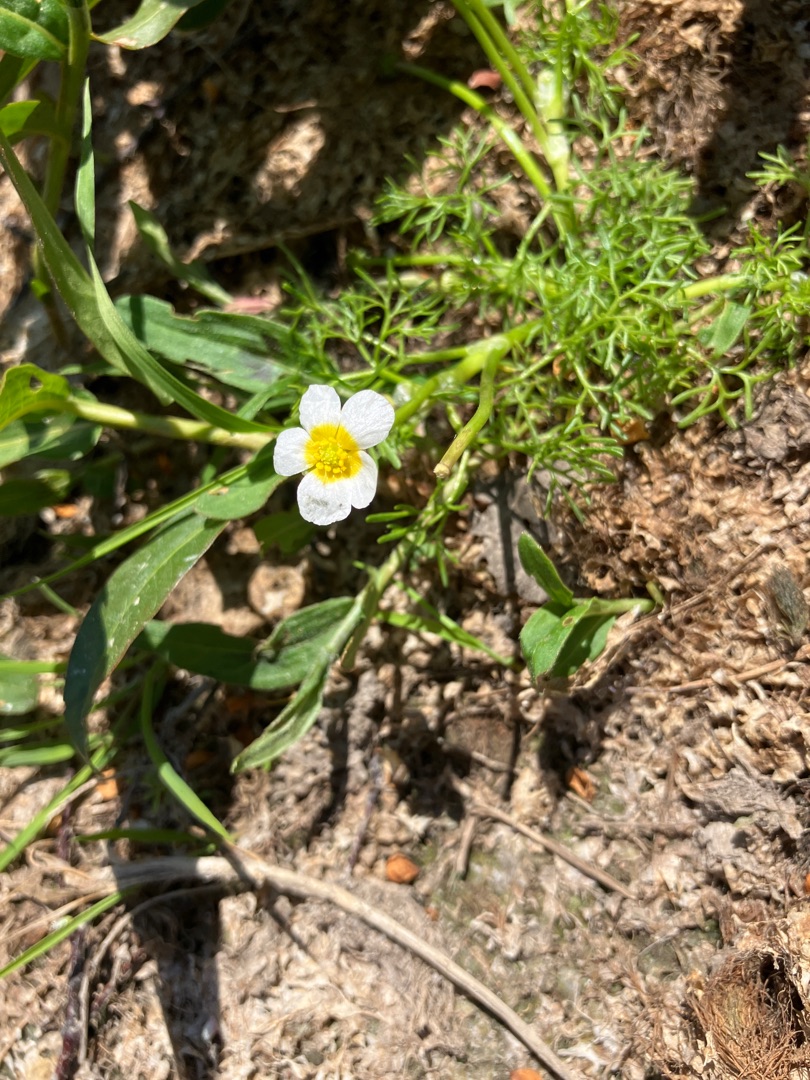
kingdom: Plantae
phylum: Tracheophyta
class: Magnoliopsida
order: Ranunculales
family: Ranunculaceae
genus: Ranunculus
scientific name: Ranunculus
